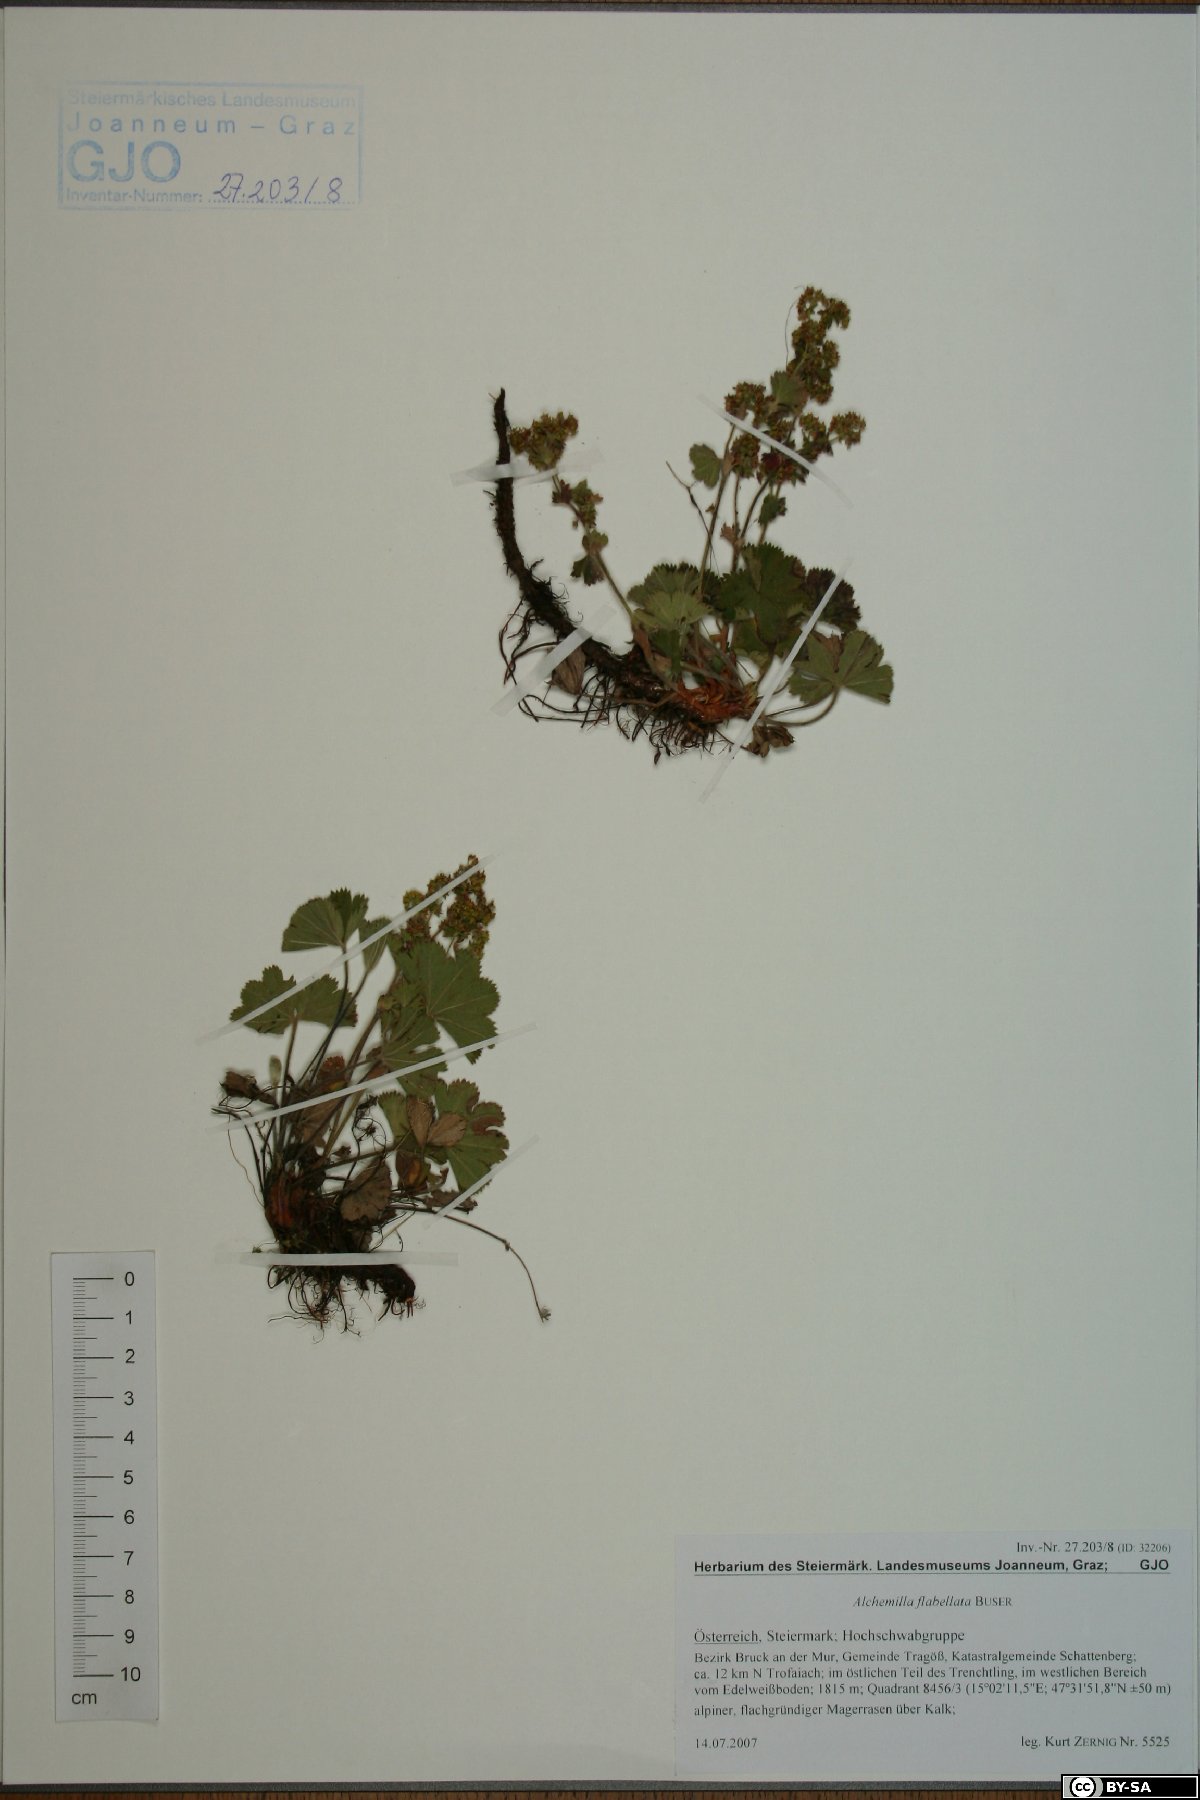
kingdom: Plantae
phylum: Tracheophyta
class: Magnoliopsida
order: Rosales
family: Rosaceae
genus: Alchemilla
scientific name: Alchemilla flabellata
